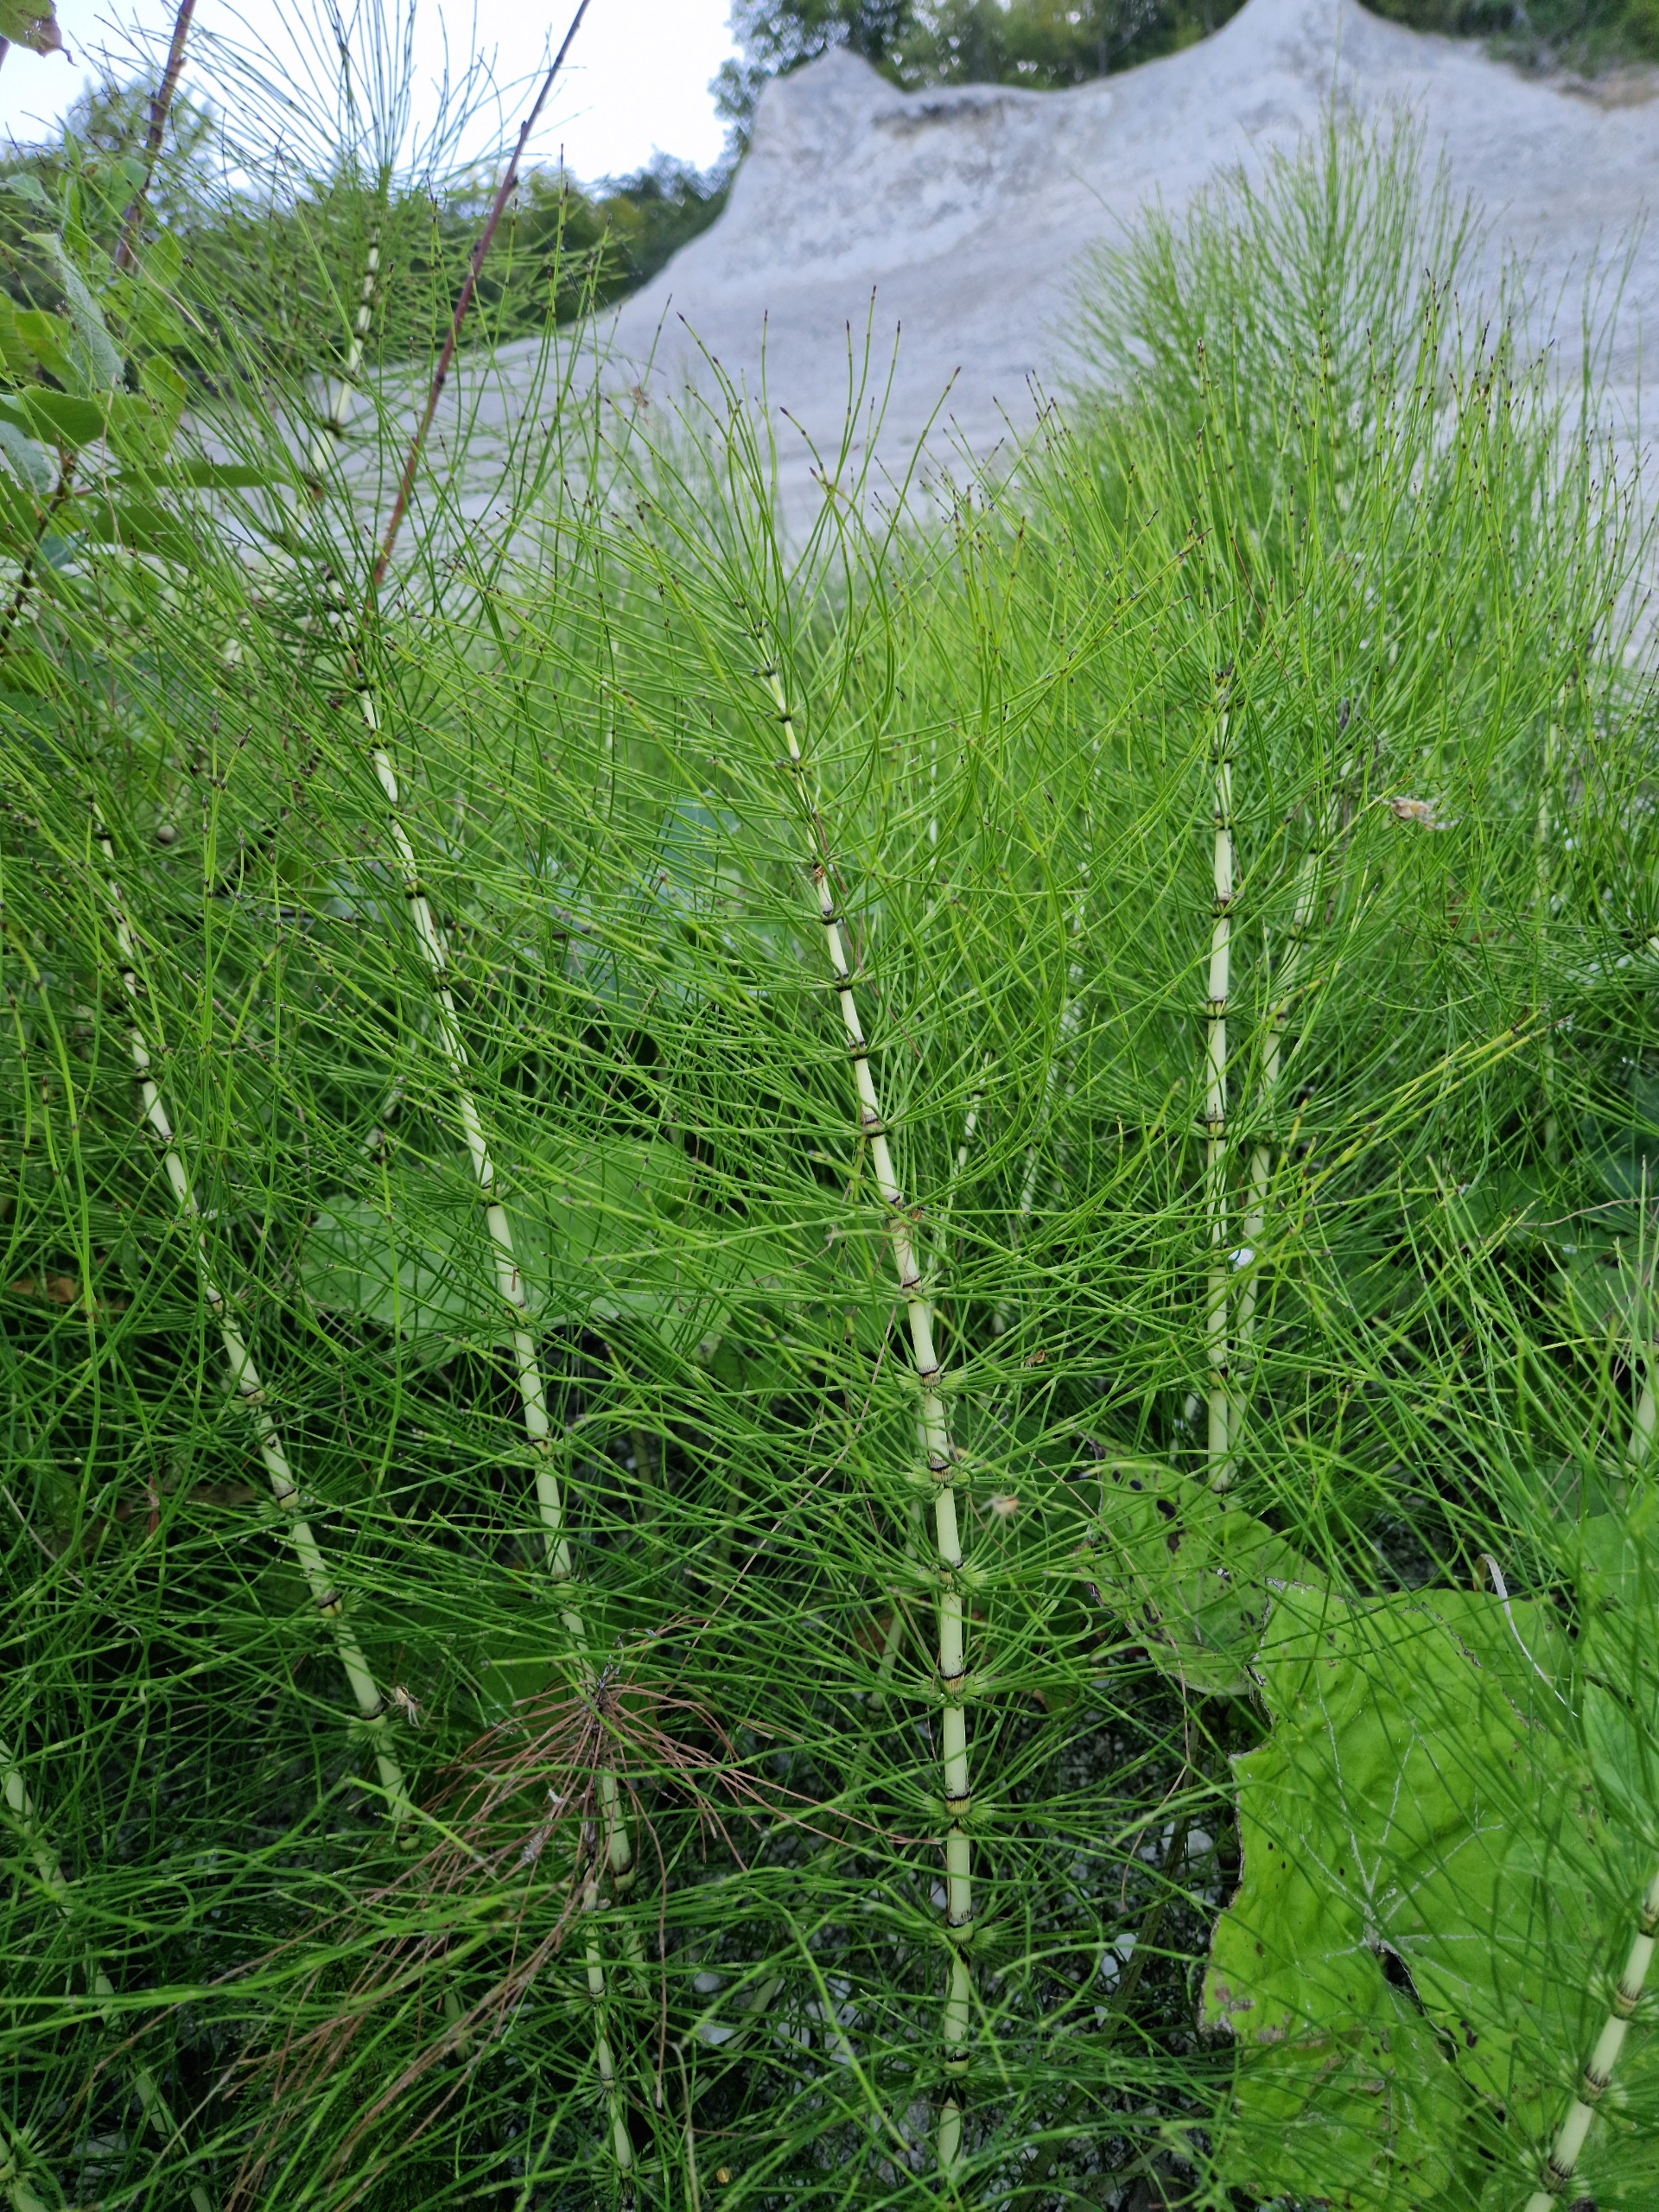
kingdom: Plantae
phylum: Tracheophyta
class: Polypodiopsida
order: Equisetales
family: Equisetaceae
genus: Equisetum
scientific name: Equisetum telmateia
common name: Elfenbens-padderok
